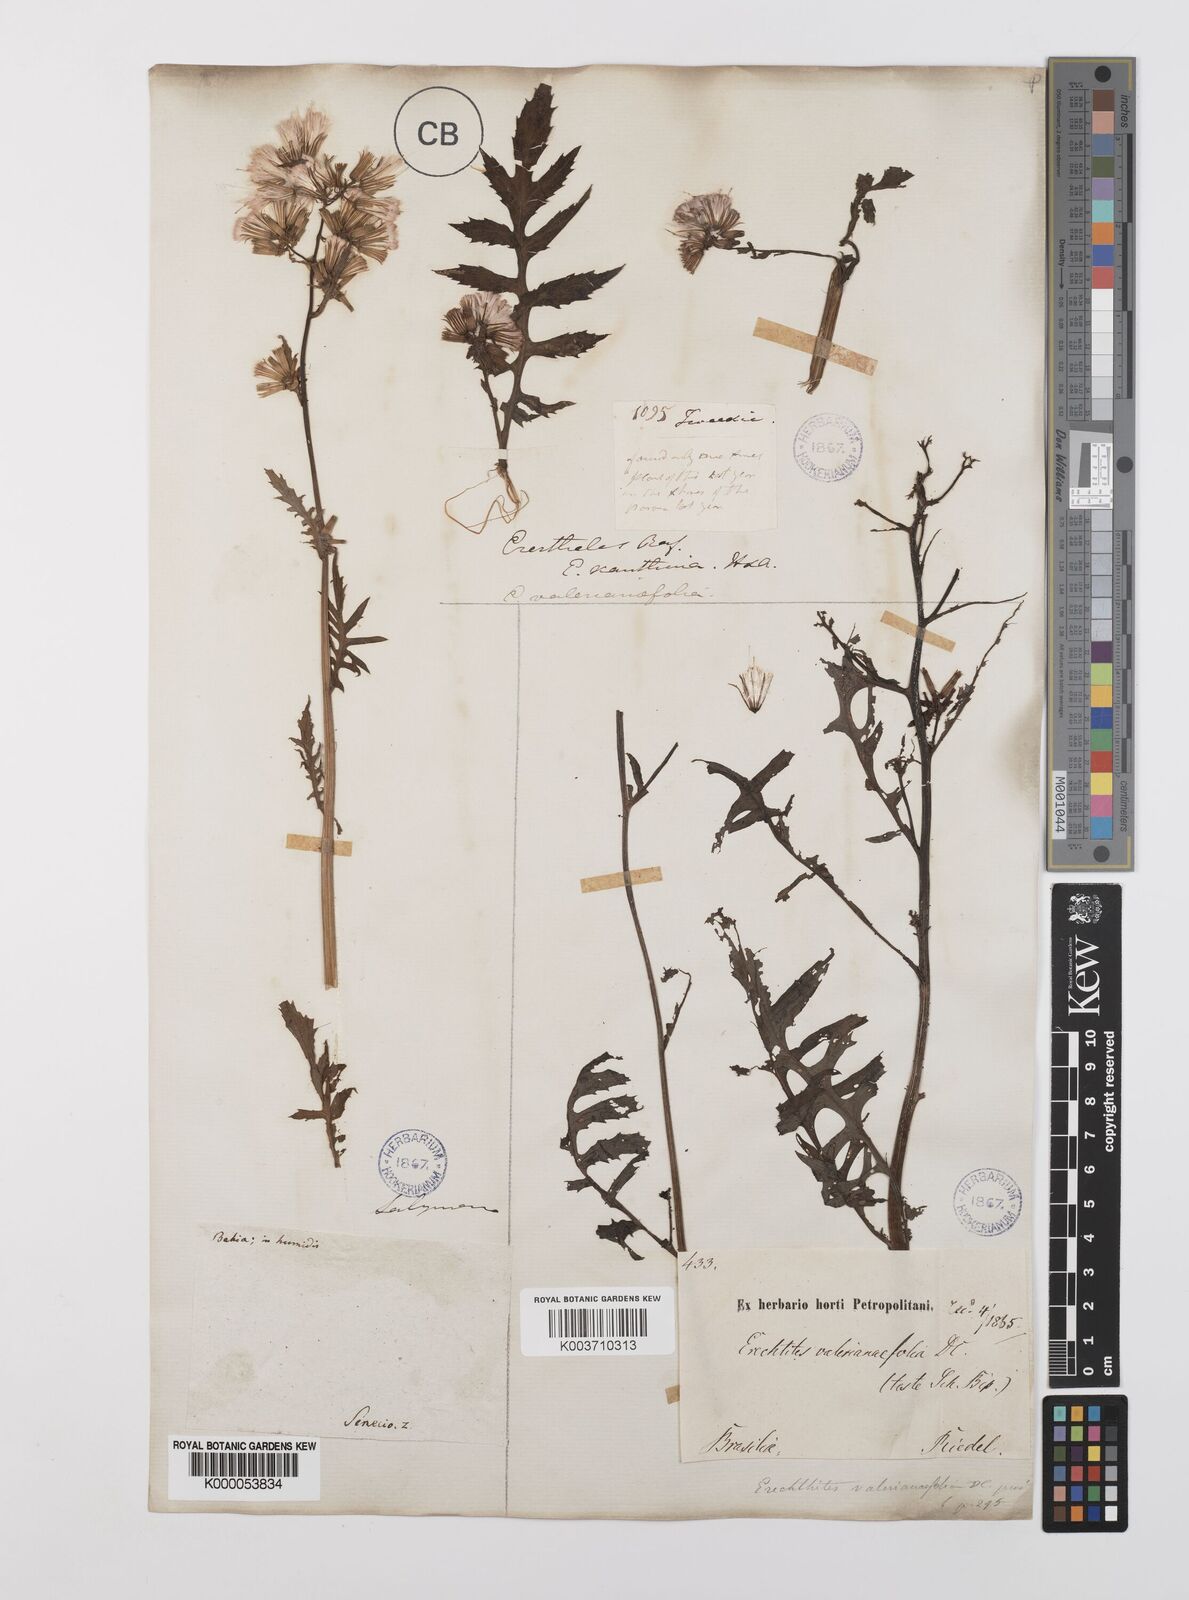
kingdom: Plantae
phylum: Tracheophyta
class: Magnoliopsida
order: Asterales
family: Asteraceae
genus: Erechtites
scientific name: Erechtites valerianifolius
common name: Tropical burnweed
